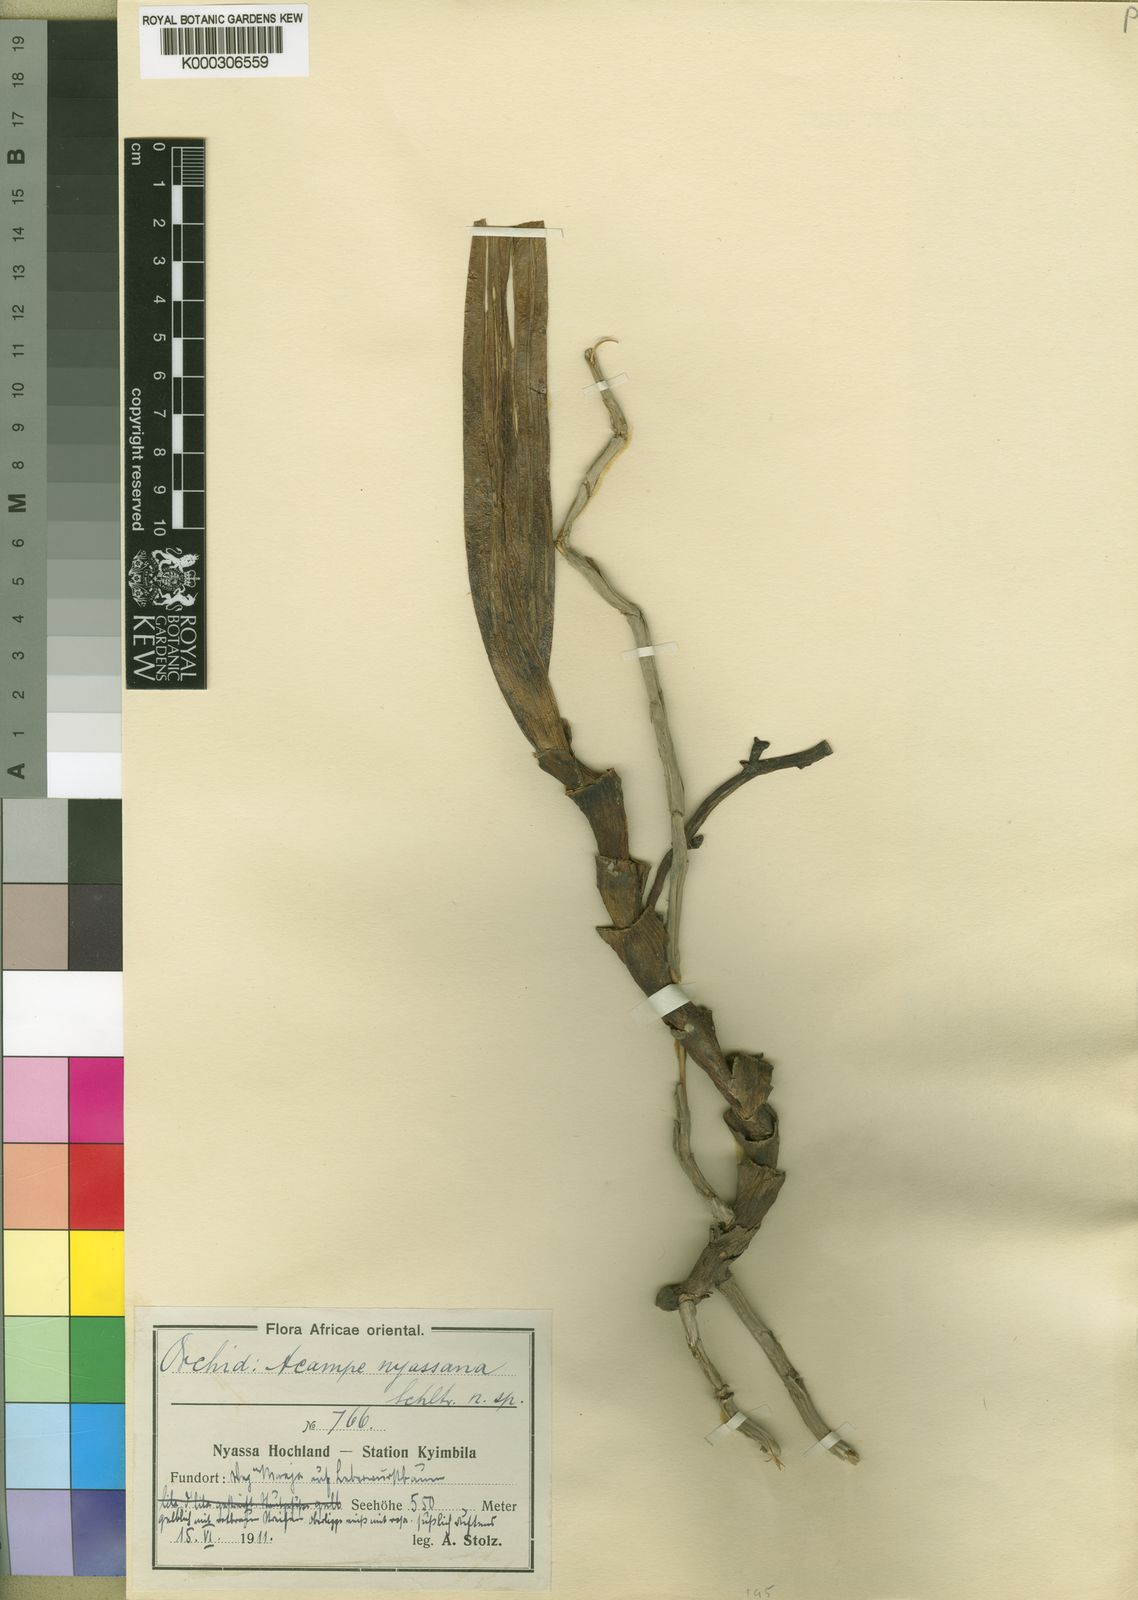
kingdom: Plantae
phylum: Tracheophyta
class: Liliopsida
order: Asparagales
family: Orchidaceae
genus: Acampe
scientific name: Acampe pachyglossa
